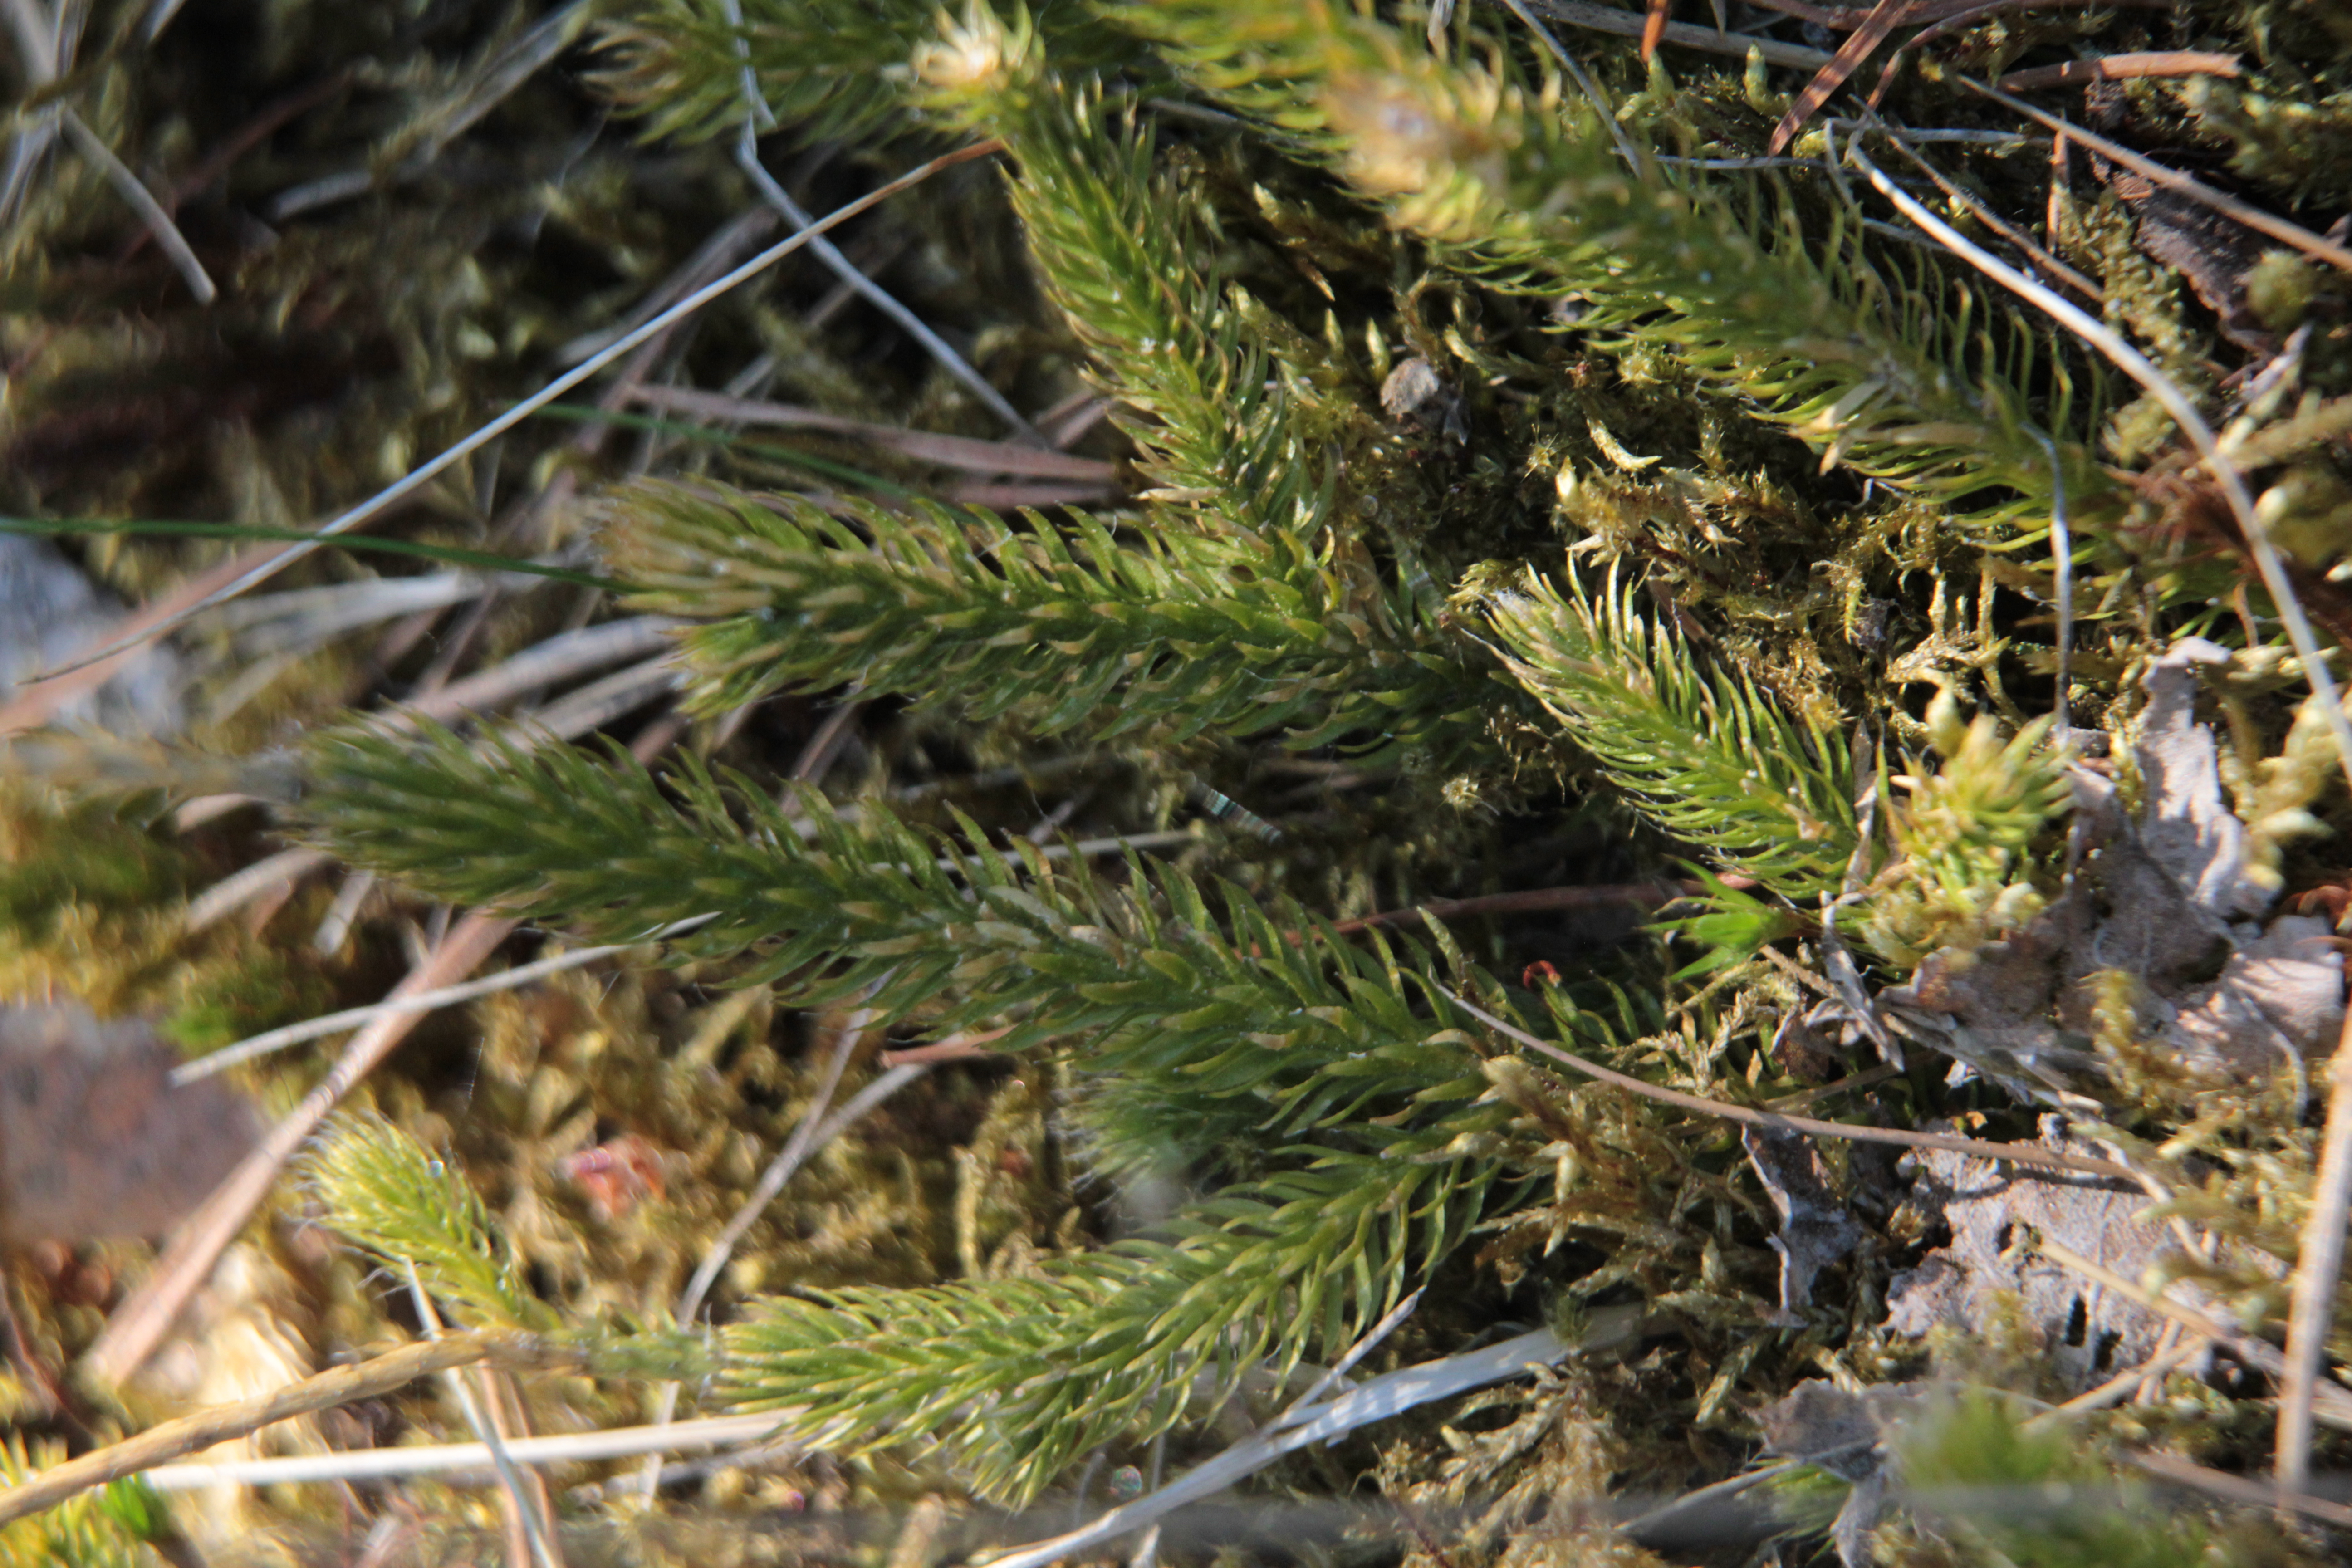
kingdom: Plantae
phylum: Tracheophyta
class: Lycopodiopsida
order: Lycopodiales
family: Lycopodiaceae
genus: Lycopodium
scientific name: Lycopodium clavatum
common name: Stag's-horn clubmoss
